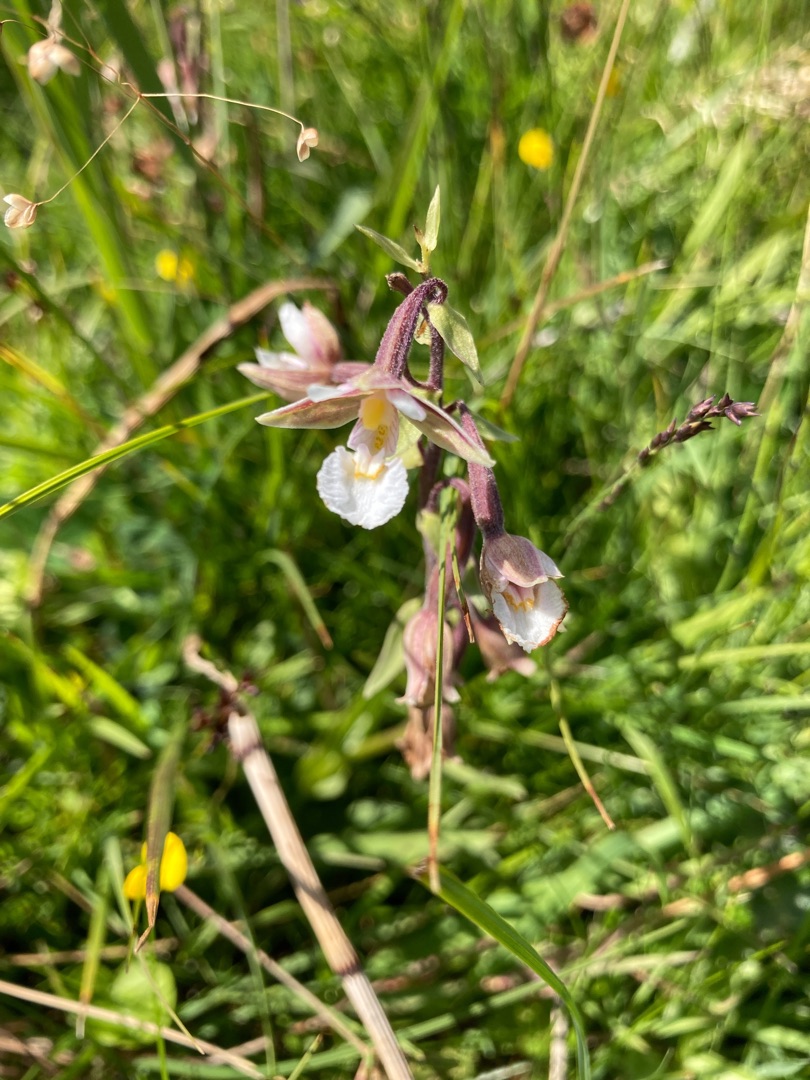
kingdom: Plantae
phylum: Tracheophyta
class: Liliopsida
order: Asparagales
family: Orchidaceae
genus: Epipactis
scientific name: Epipactis palustris
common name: Sump-hullæbe
